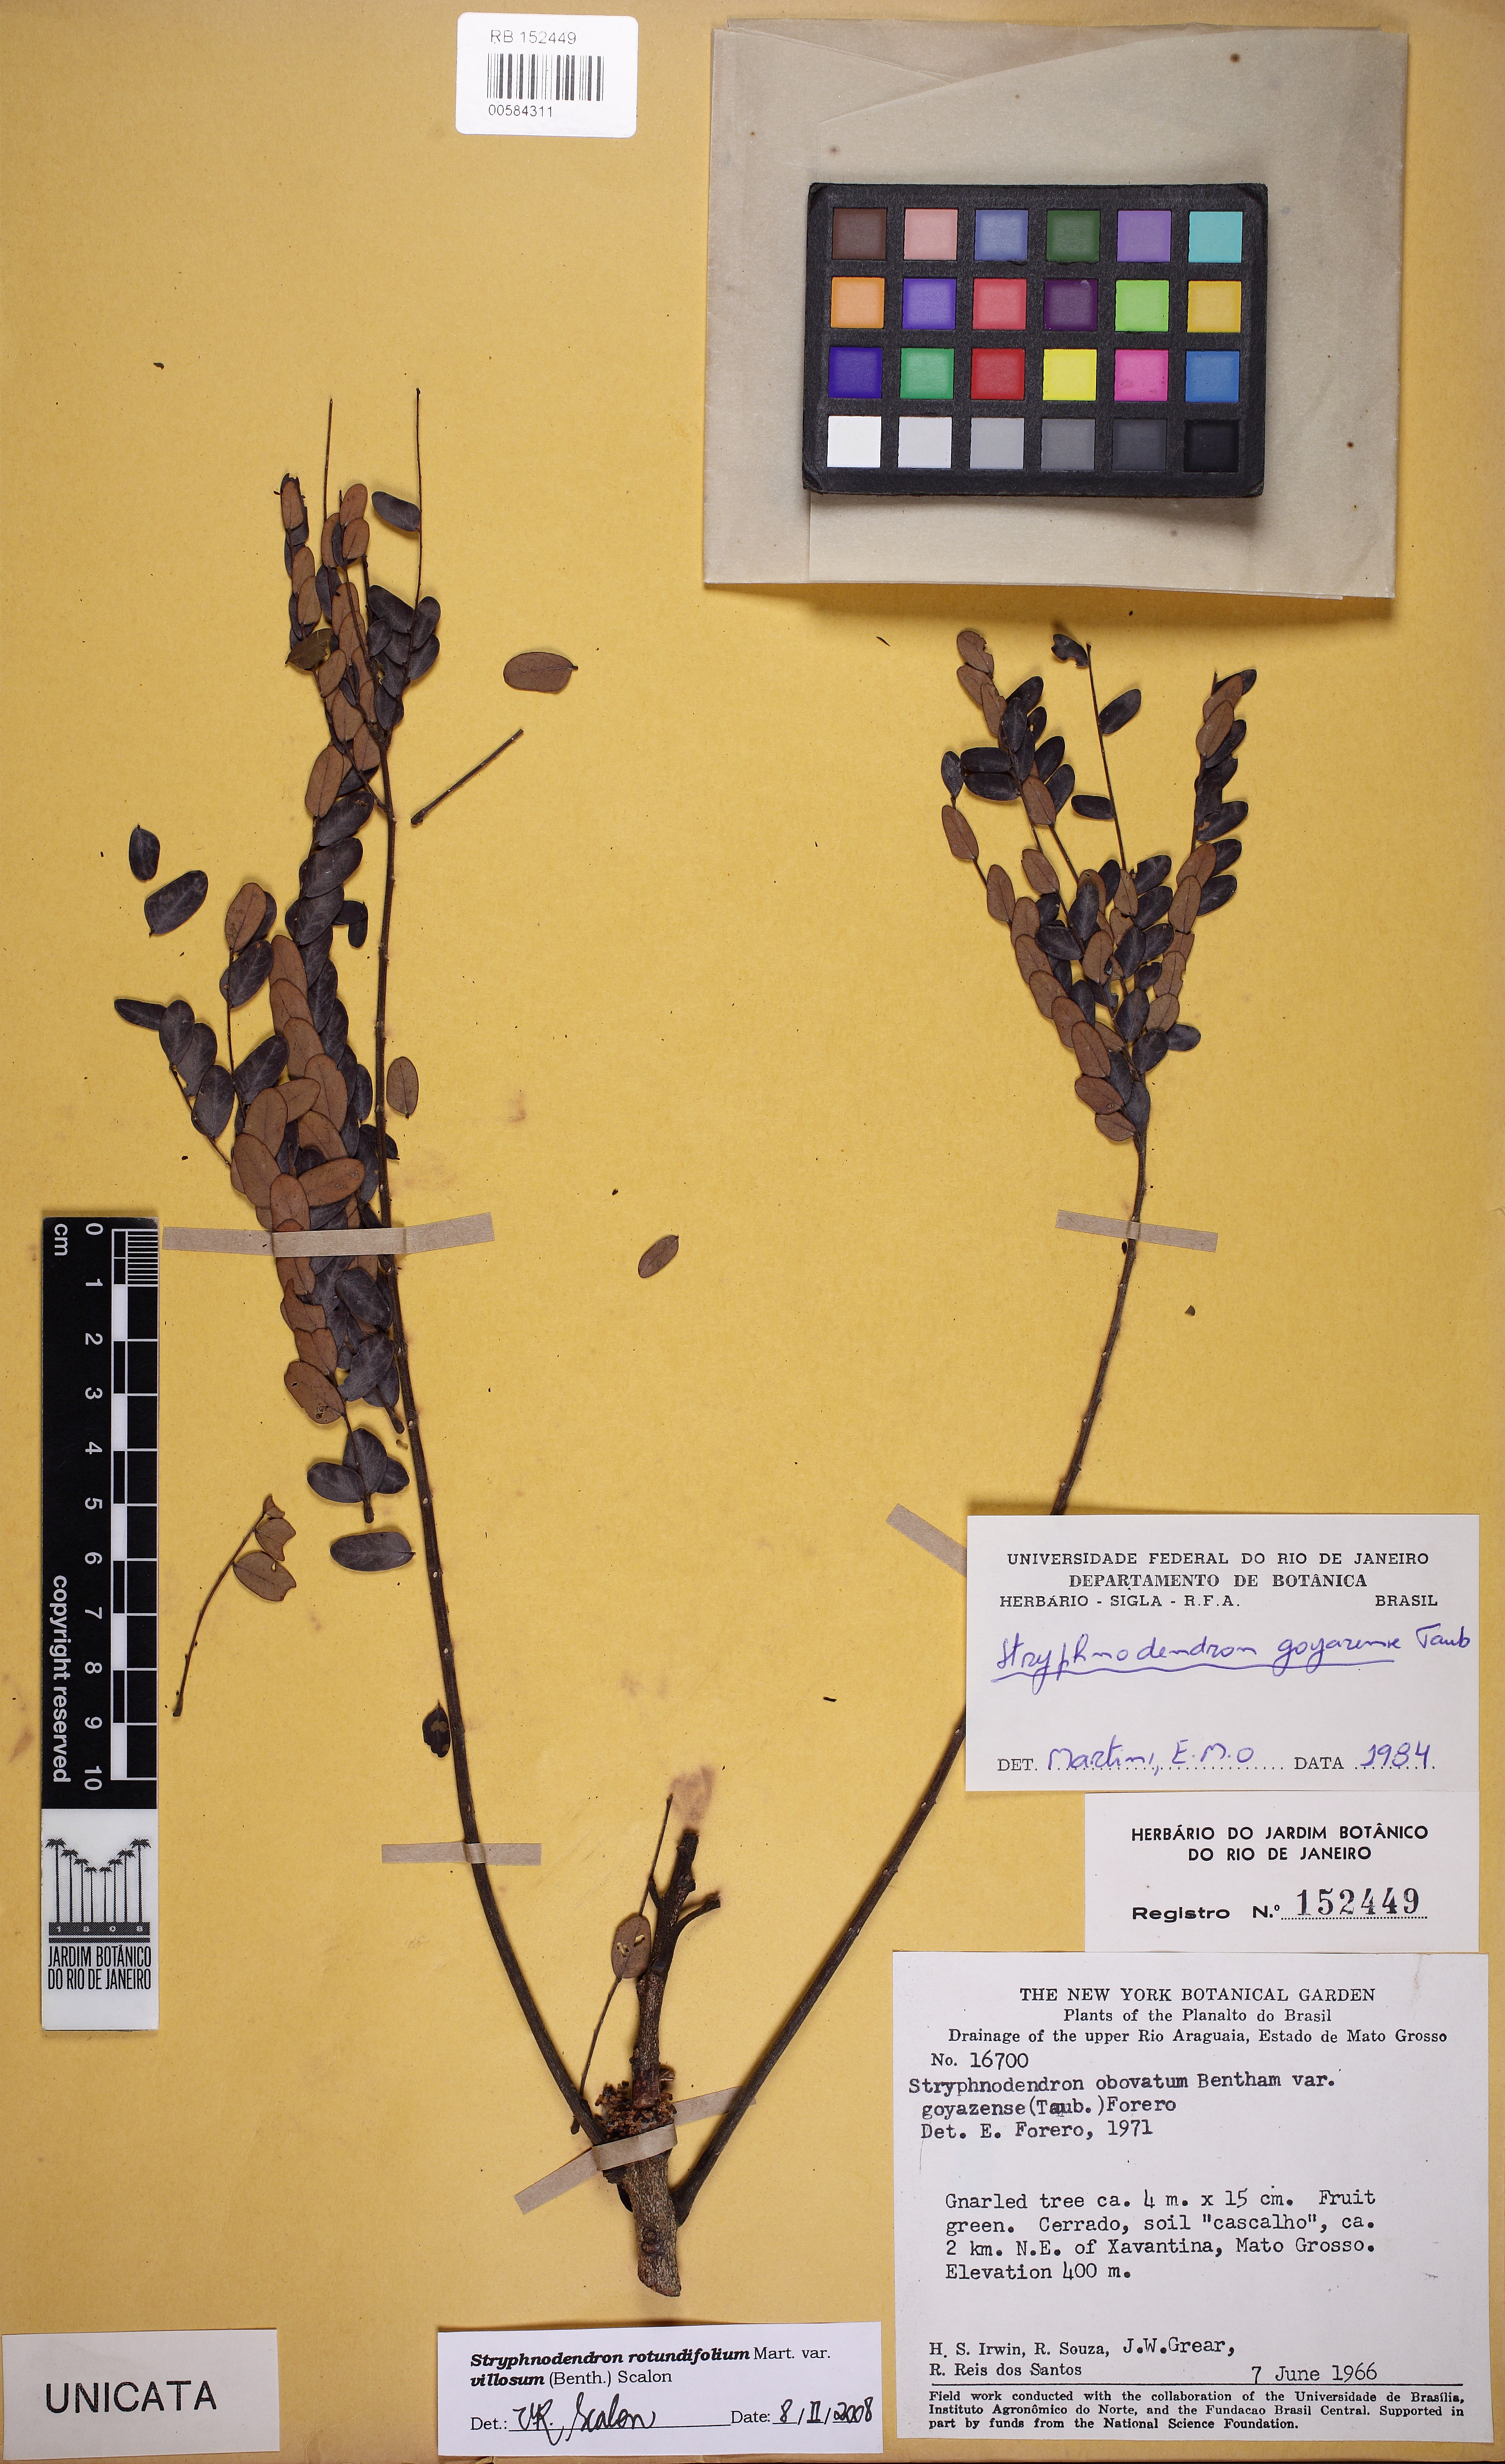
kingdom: Plantae
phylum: Tracheophyta
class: Magnoliopsida
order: Fabales
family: Fabaceae
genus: Stryphnodendron
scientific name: Stryphnodendron polyphyllum
